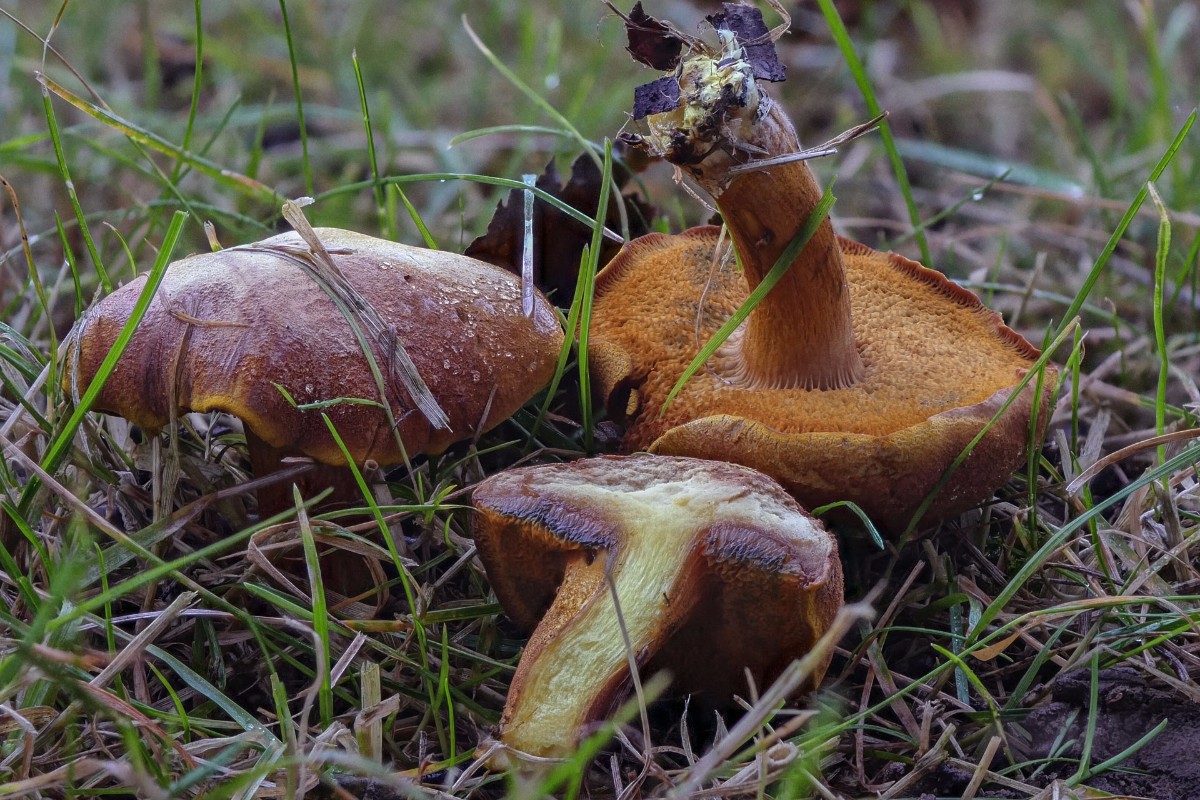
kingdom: Fungi
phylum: Basidiomycota
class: Agaricomycetes
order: Boletales
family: Boletaceae
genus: Chalciporus
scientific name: Chalciporus piperatus
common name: peberrørhat
